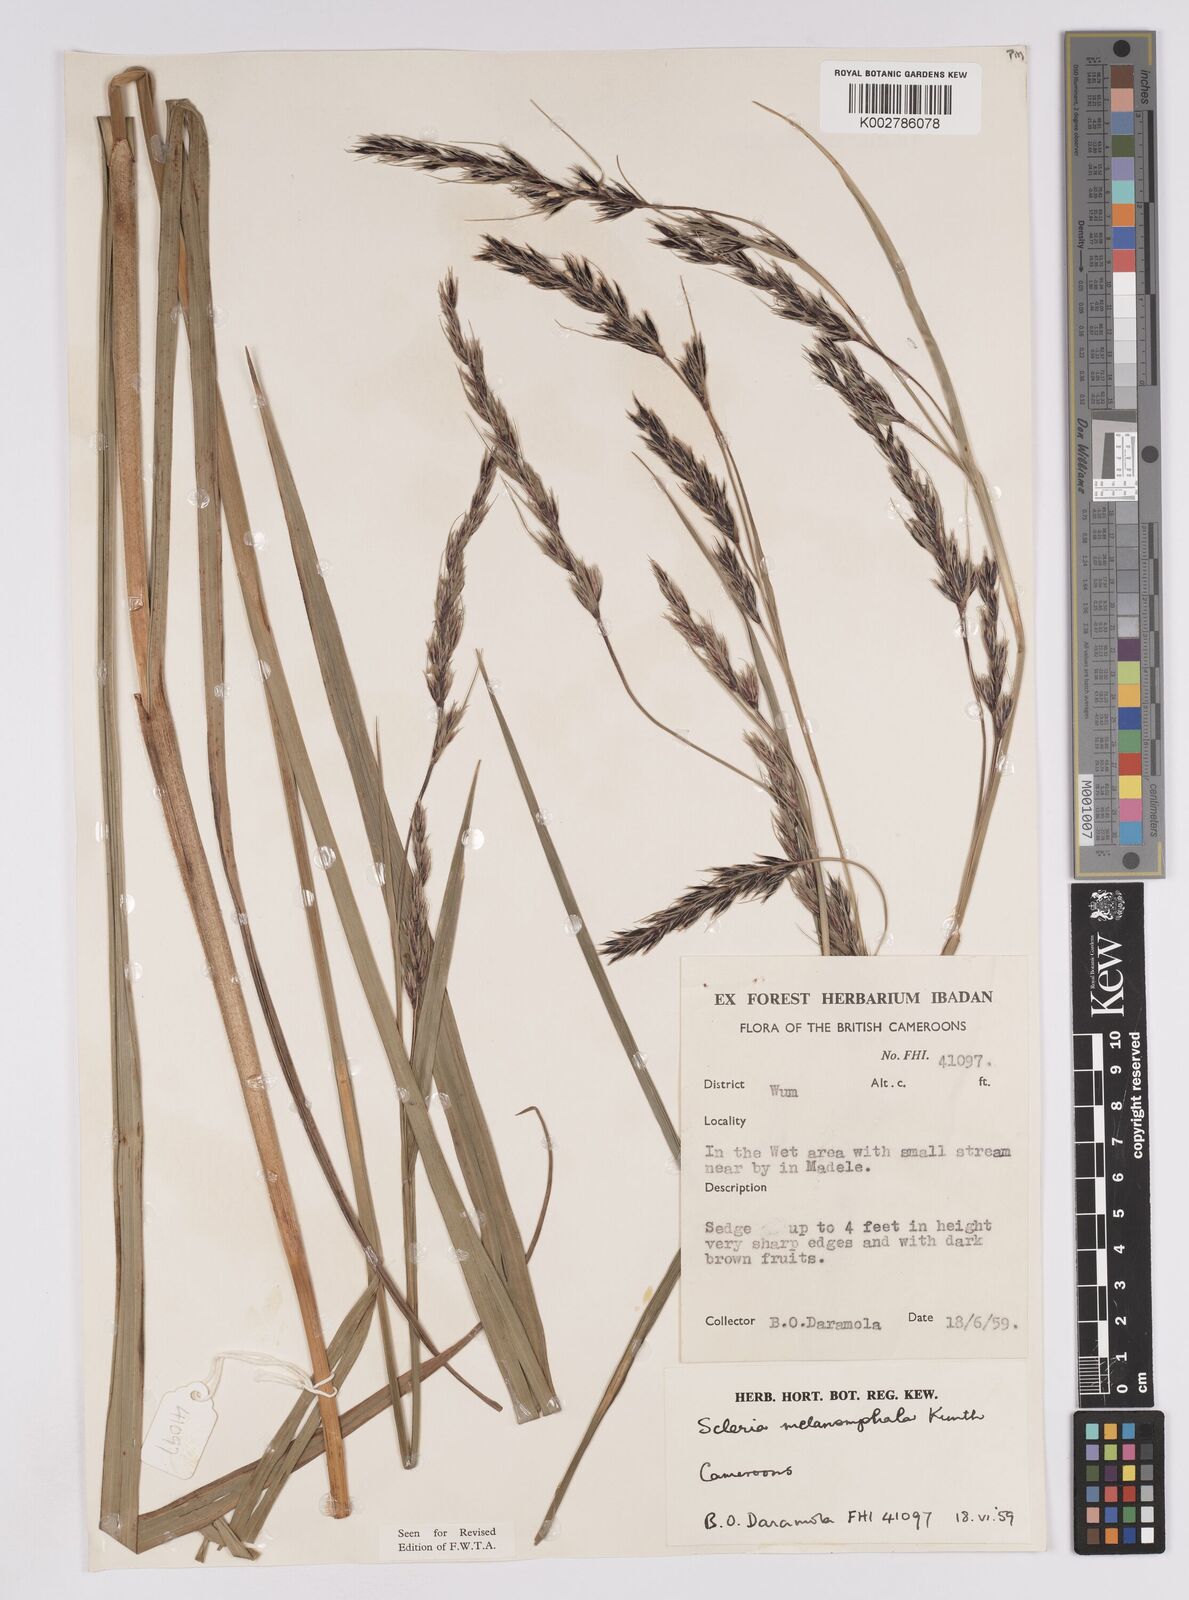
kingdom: Plantae
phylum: Tracheophyta
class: Liliopsida
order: Poales
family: Cyperaceae
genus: Scleria
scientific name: Scleria melanomphala
